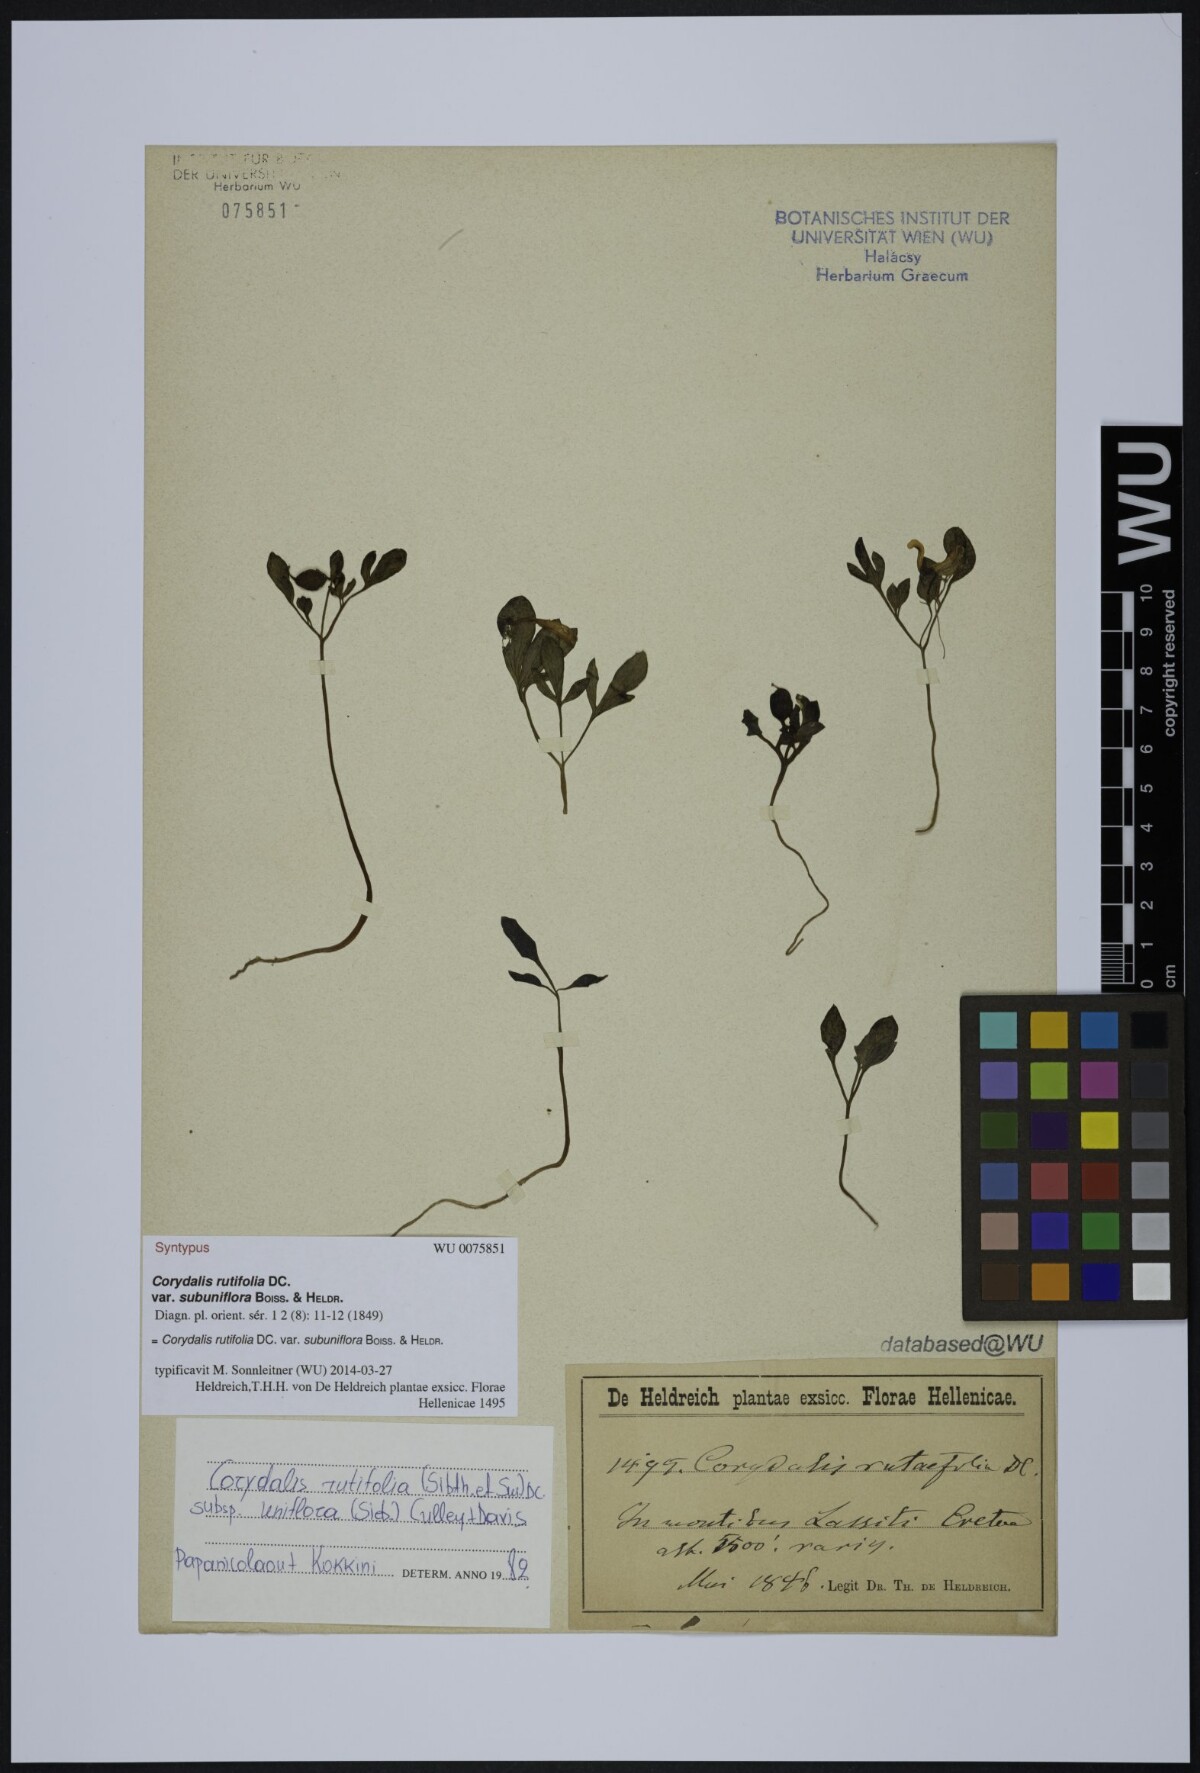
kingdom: Plantae
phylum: Tracheophyta
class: Magnoliopsida
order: Ranunculales
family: Papaveraceae
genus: Corydalis
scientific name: Corydalis rutifolia
